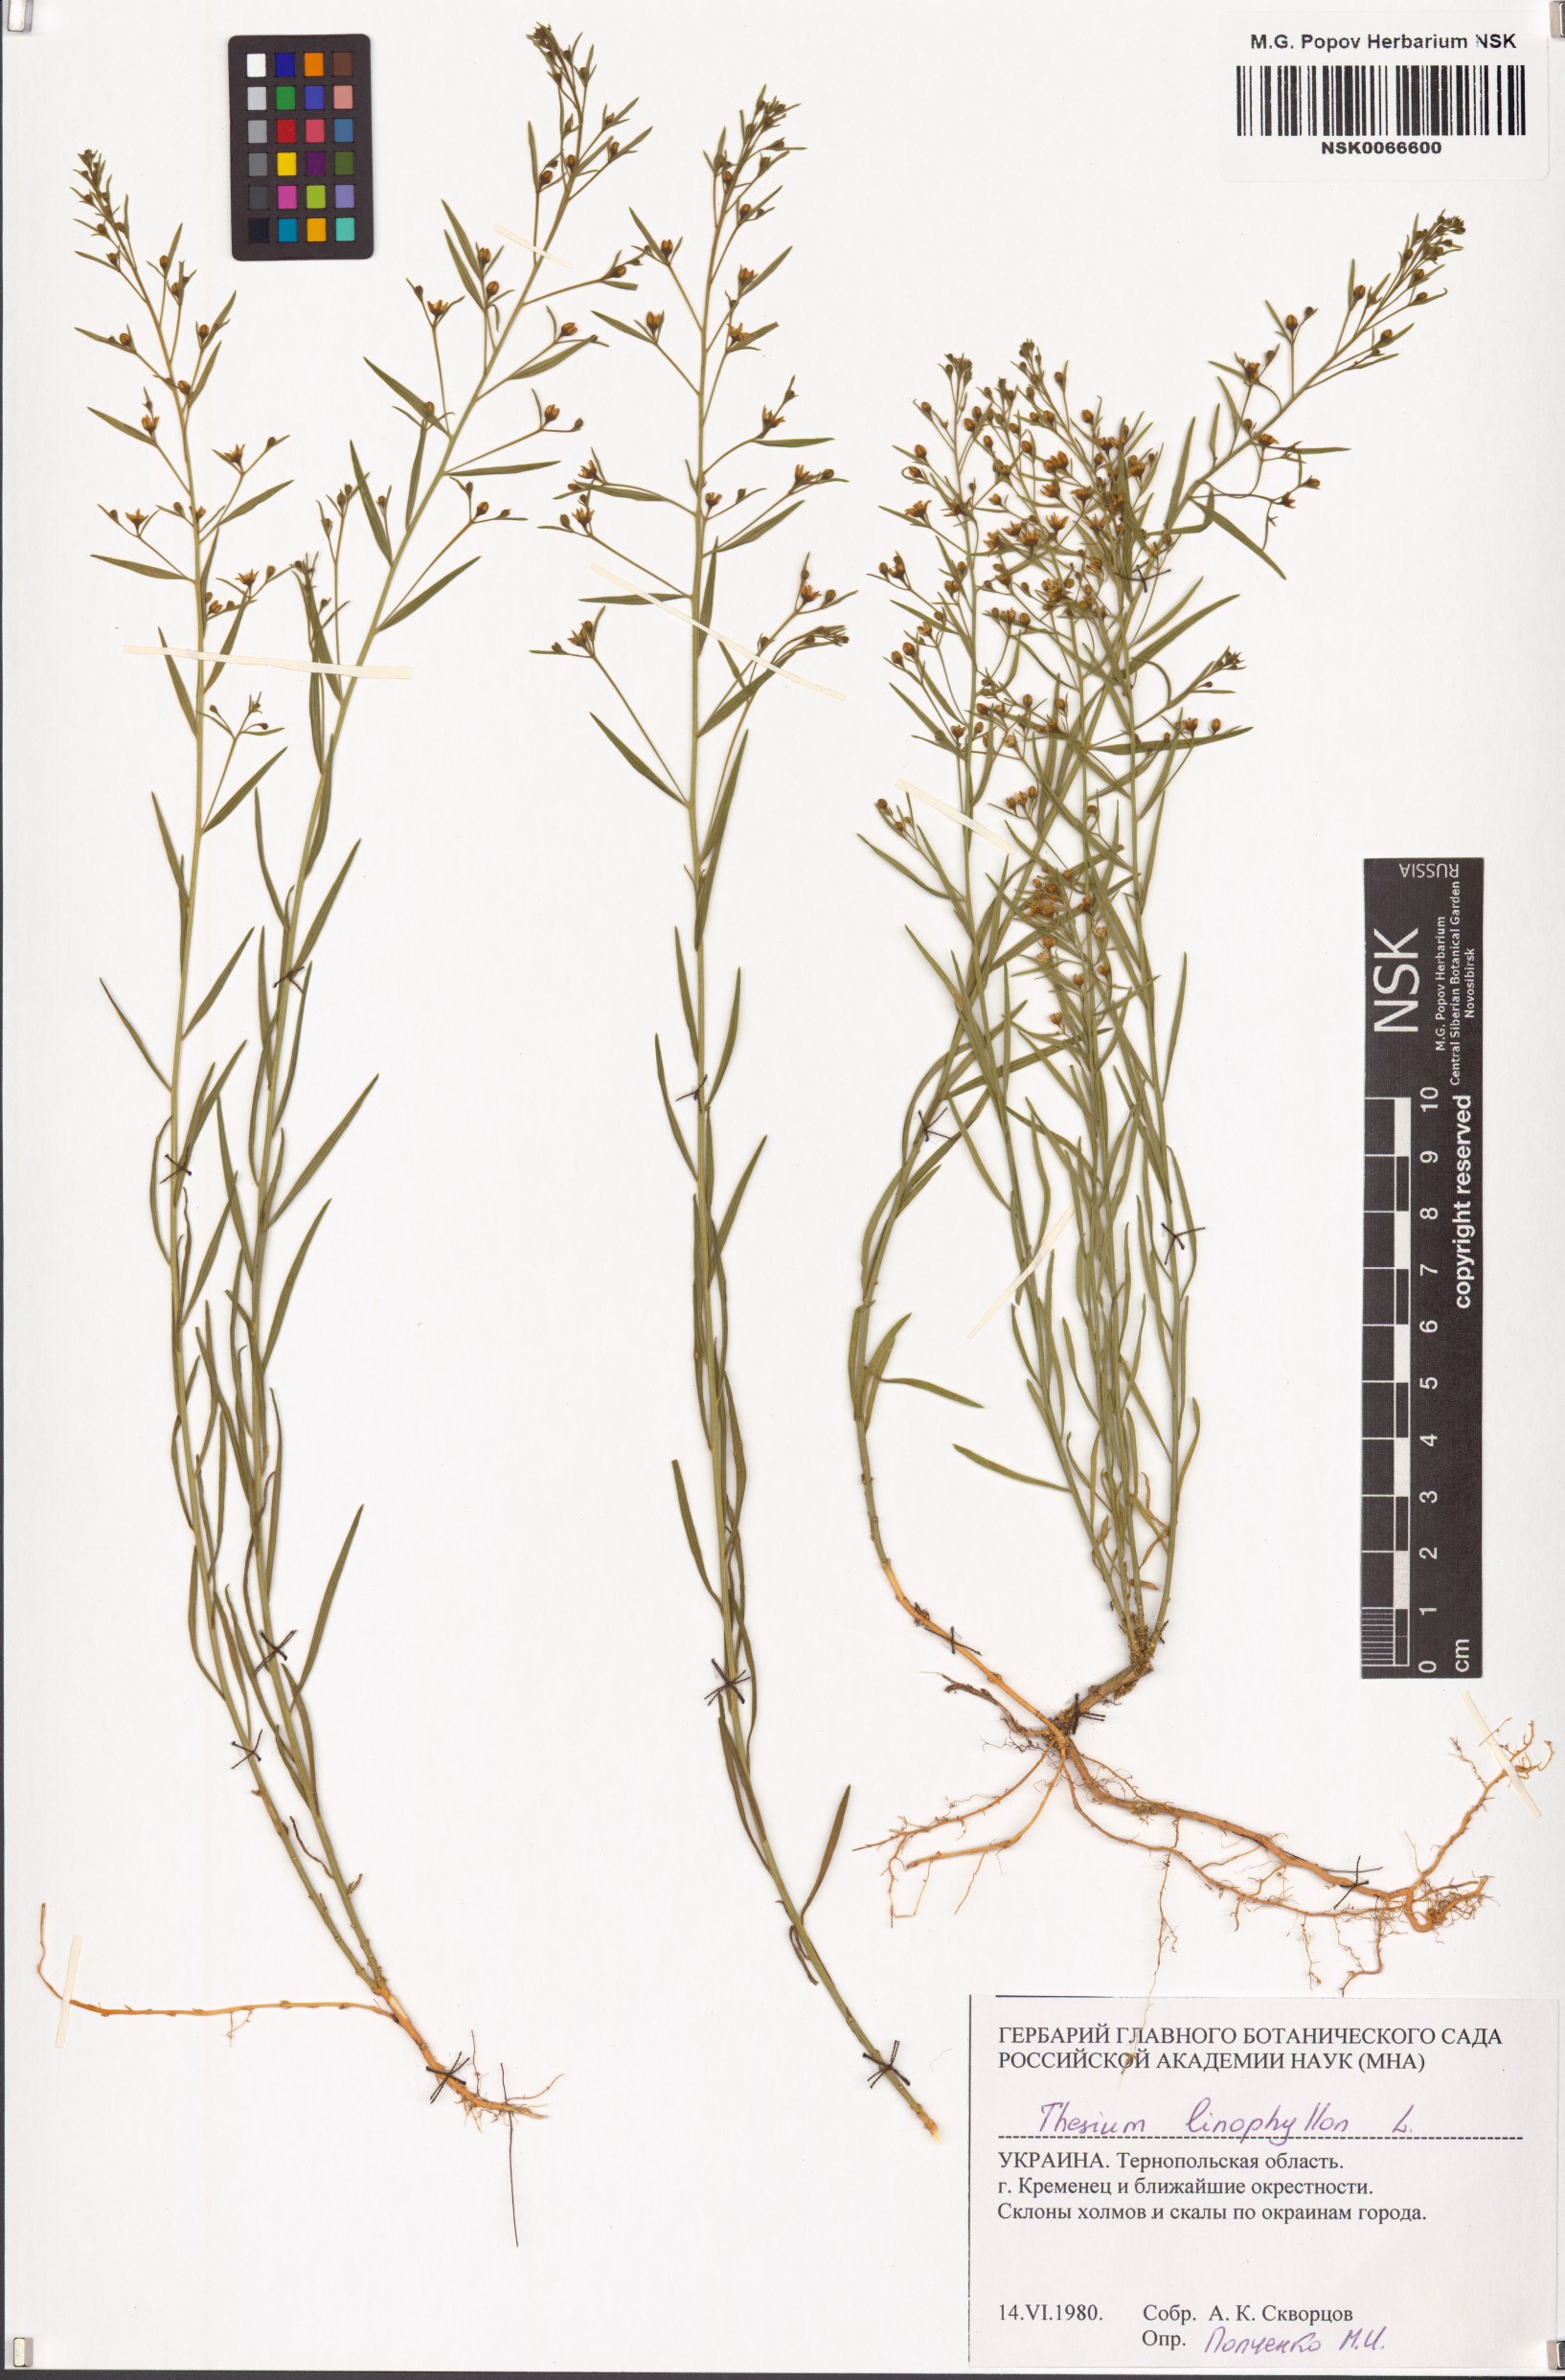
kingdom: Plantae
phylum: Tracheophyta
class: Magnoliopsida
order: Santalales
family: Thesiaceae
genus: Thesium
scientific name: Thesium linophyllon
